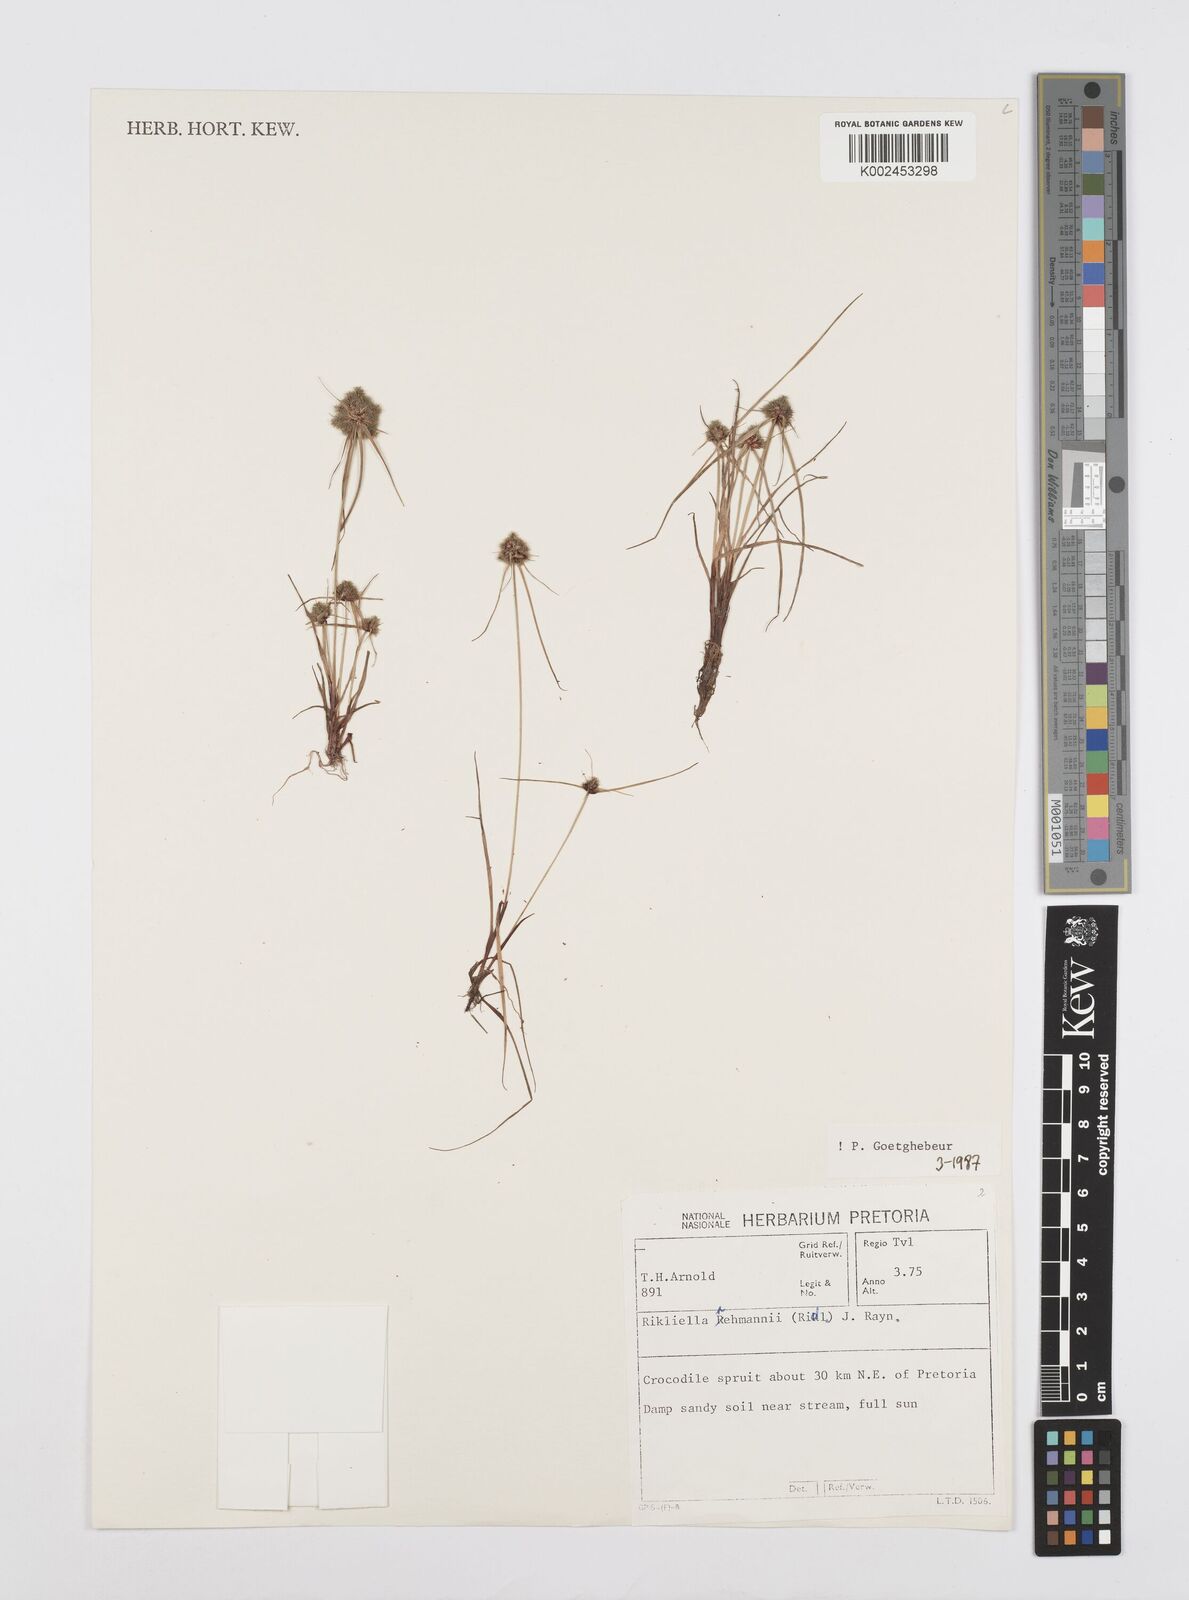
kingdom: Plantae
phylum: Tracheophyta
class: Liliopsida
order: Poales
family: Cyperaceae
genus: Cyperus
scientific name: Cyperus sanguinolentus
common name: Purpleglume flatsedge
